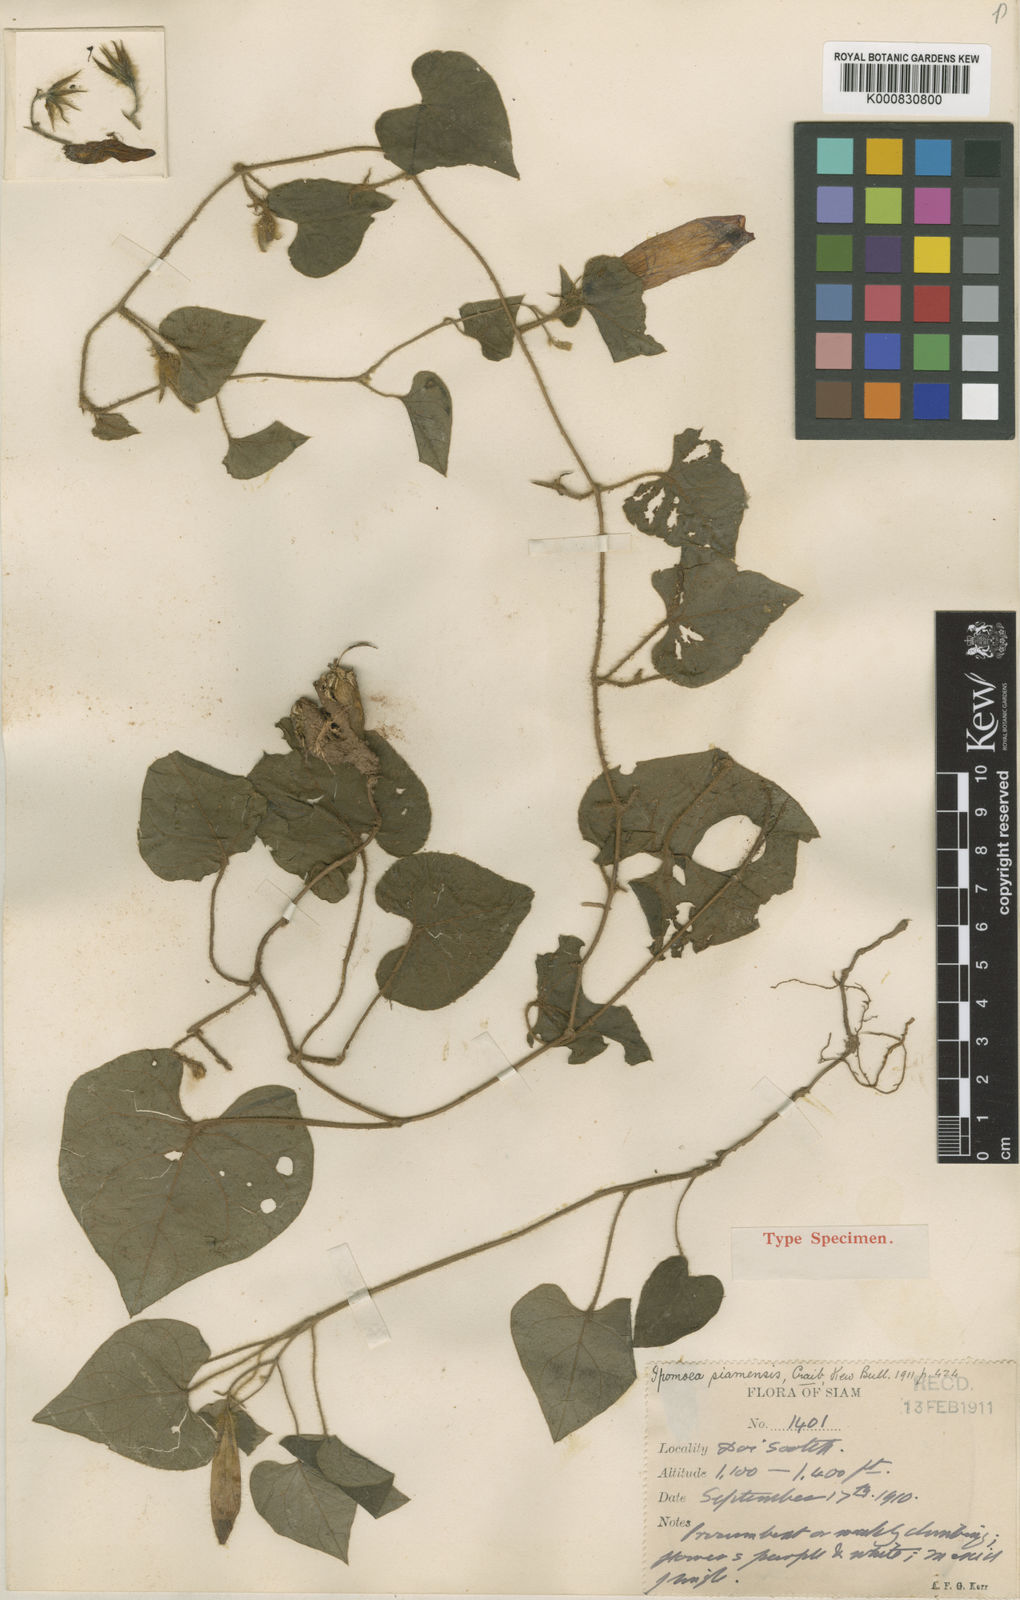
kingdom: Plantae
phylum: Tracheophyta
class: Magnoliopsida
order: Solanales
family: Convolvulaceae
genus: Argyreia
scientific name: Argyreia siamensis
